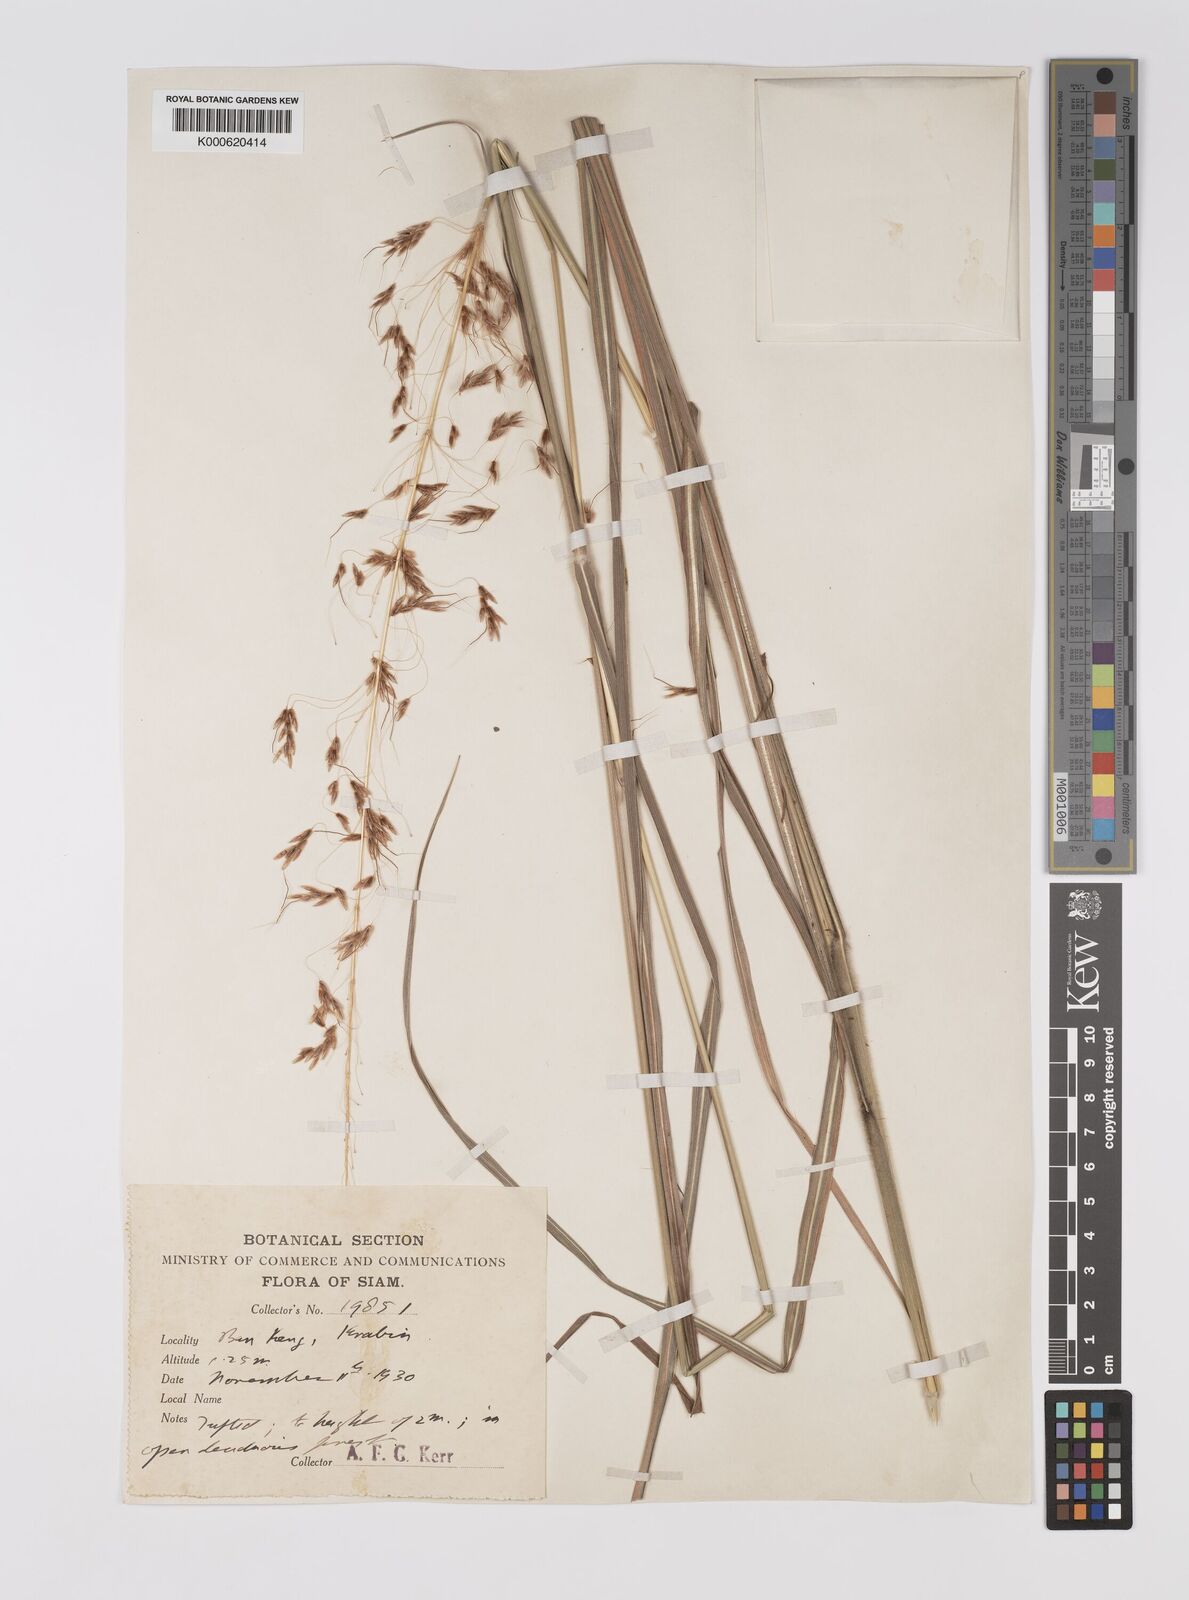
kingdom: Plantae
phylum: Tracheophyta
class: Liliopsida
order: Poales
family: Poaceae
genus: Sorghum
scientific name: Sorghum nitidum
